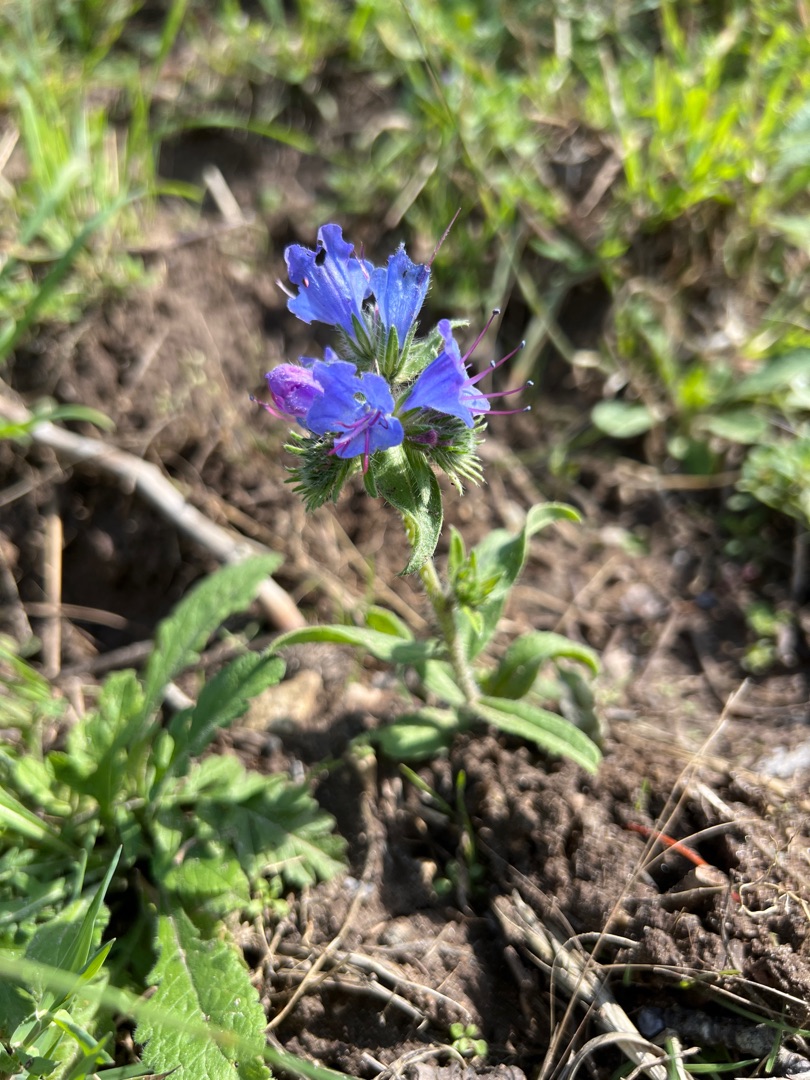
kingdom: Plantae
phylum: Tracheophyta
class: Magnoliopsida
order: Boraginales
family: Boraginaceae
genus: Echium
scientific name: Echium vulgare
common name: Slangehoved
